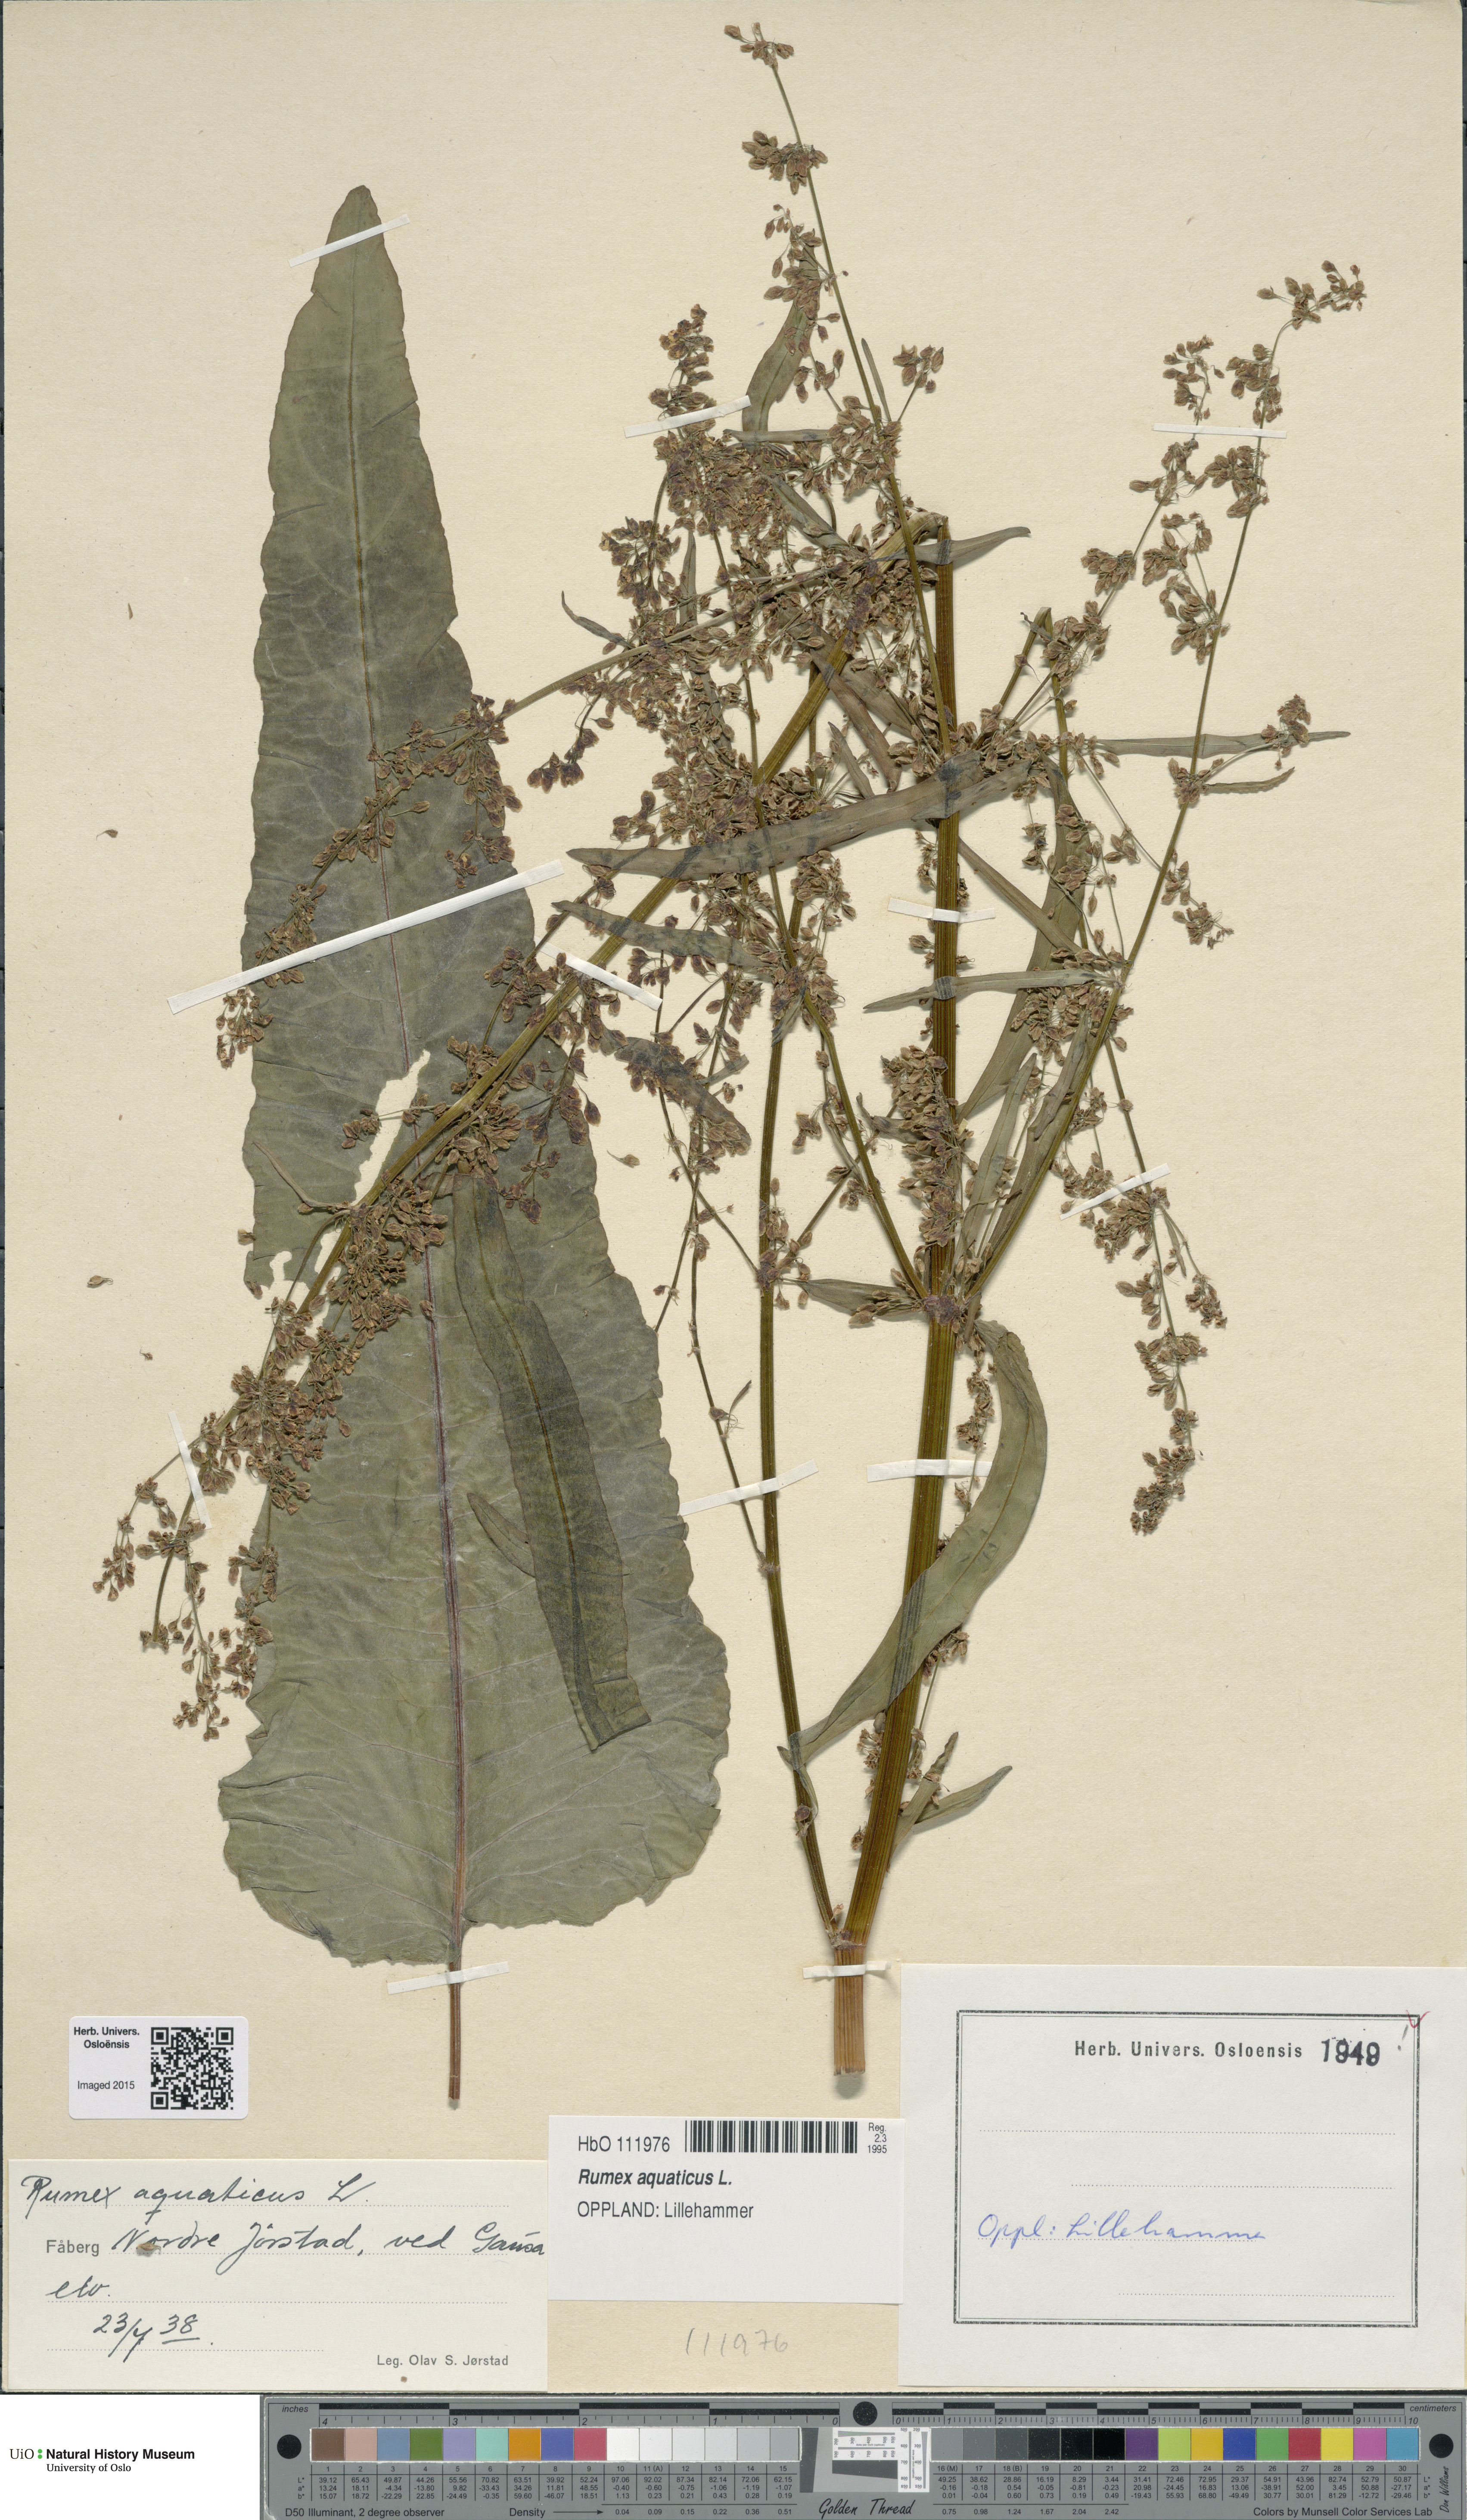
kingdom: Plantae
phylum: Tracheophyta
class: Magnoliopsida
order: Caryophyllales
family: Polygonaceae
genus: Rumex
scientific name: Rumex aquaticus
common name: Scottish dock
